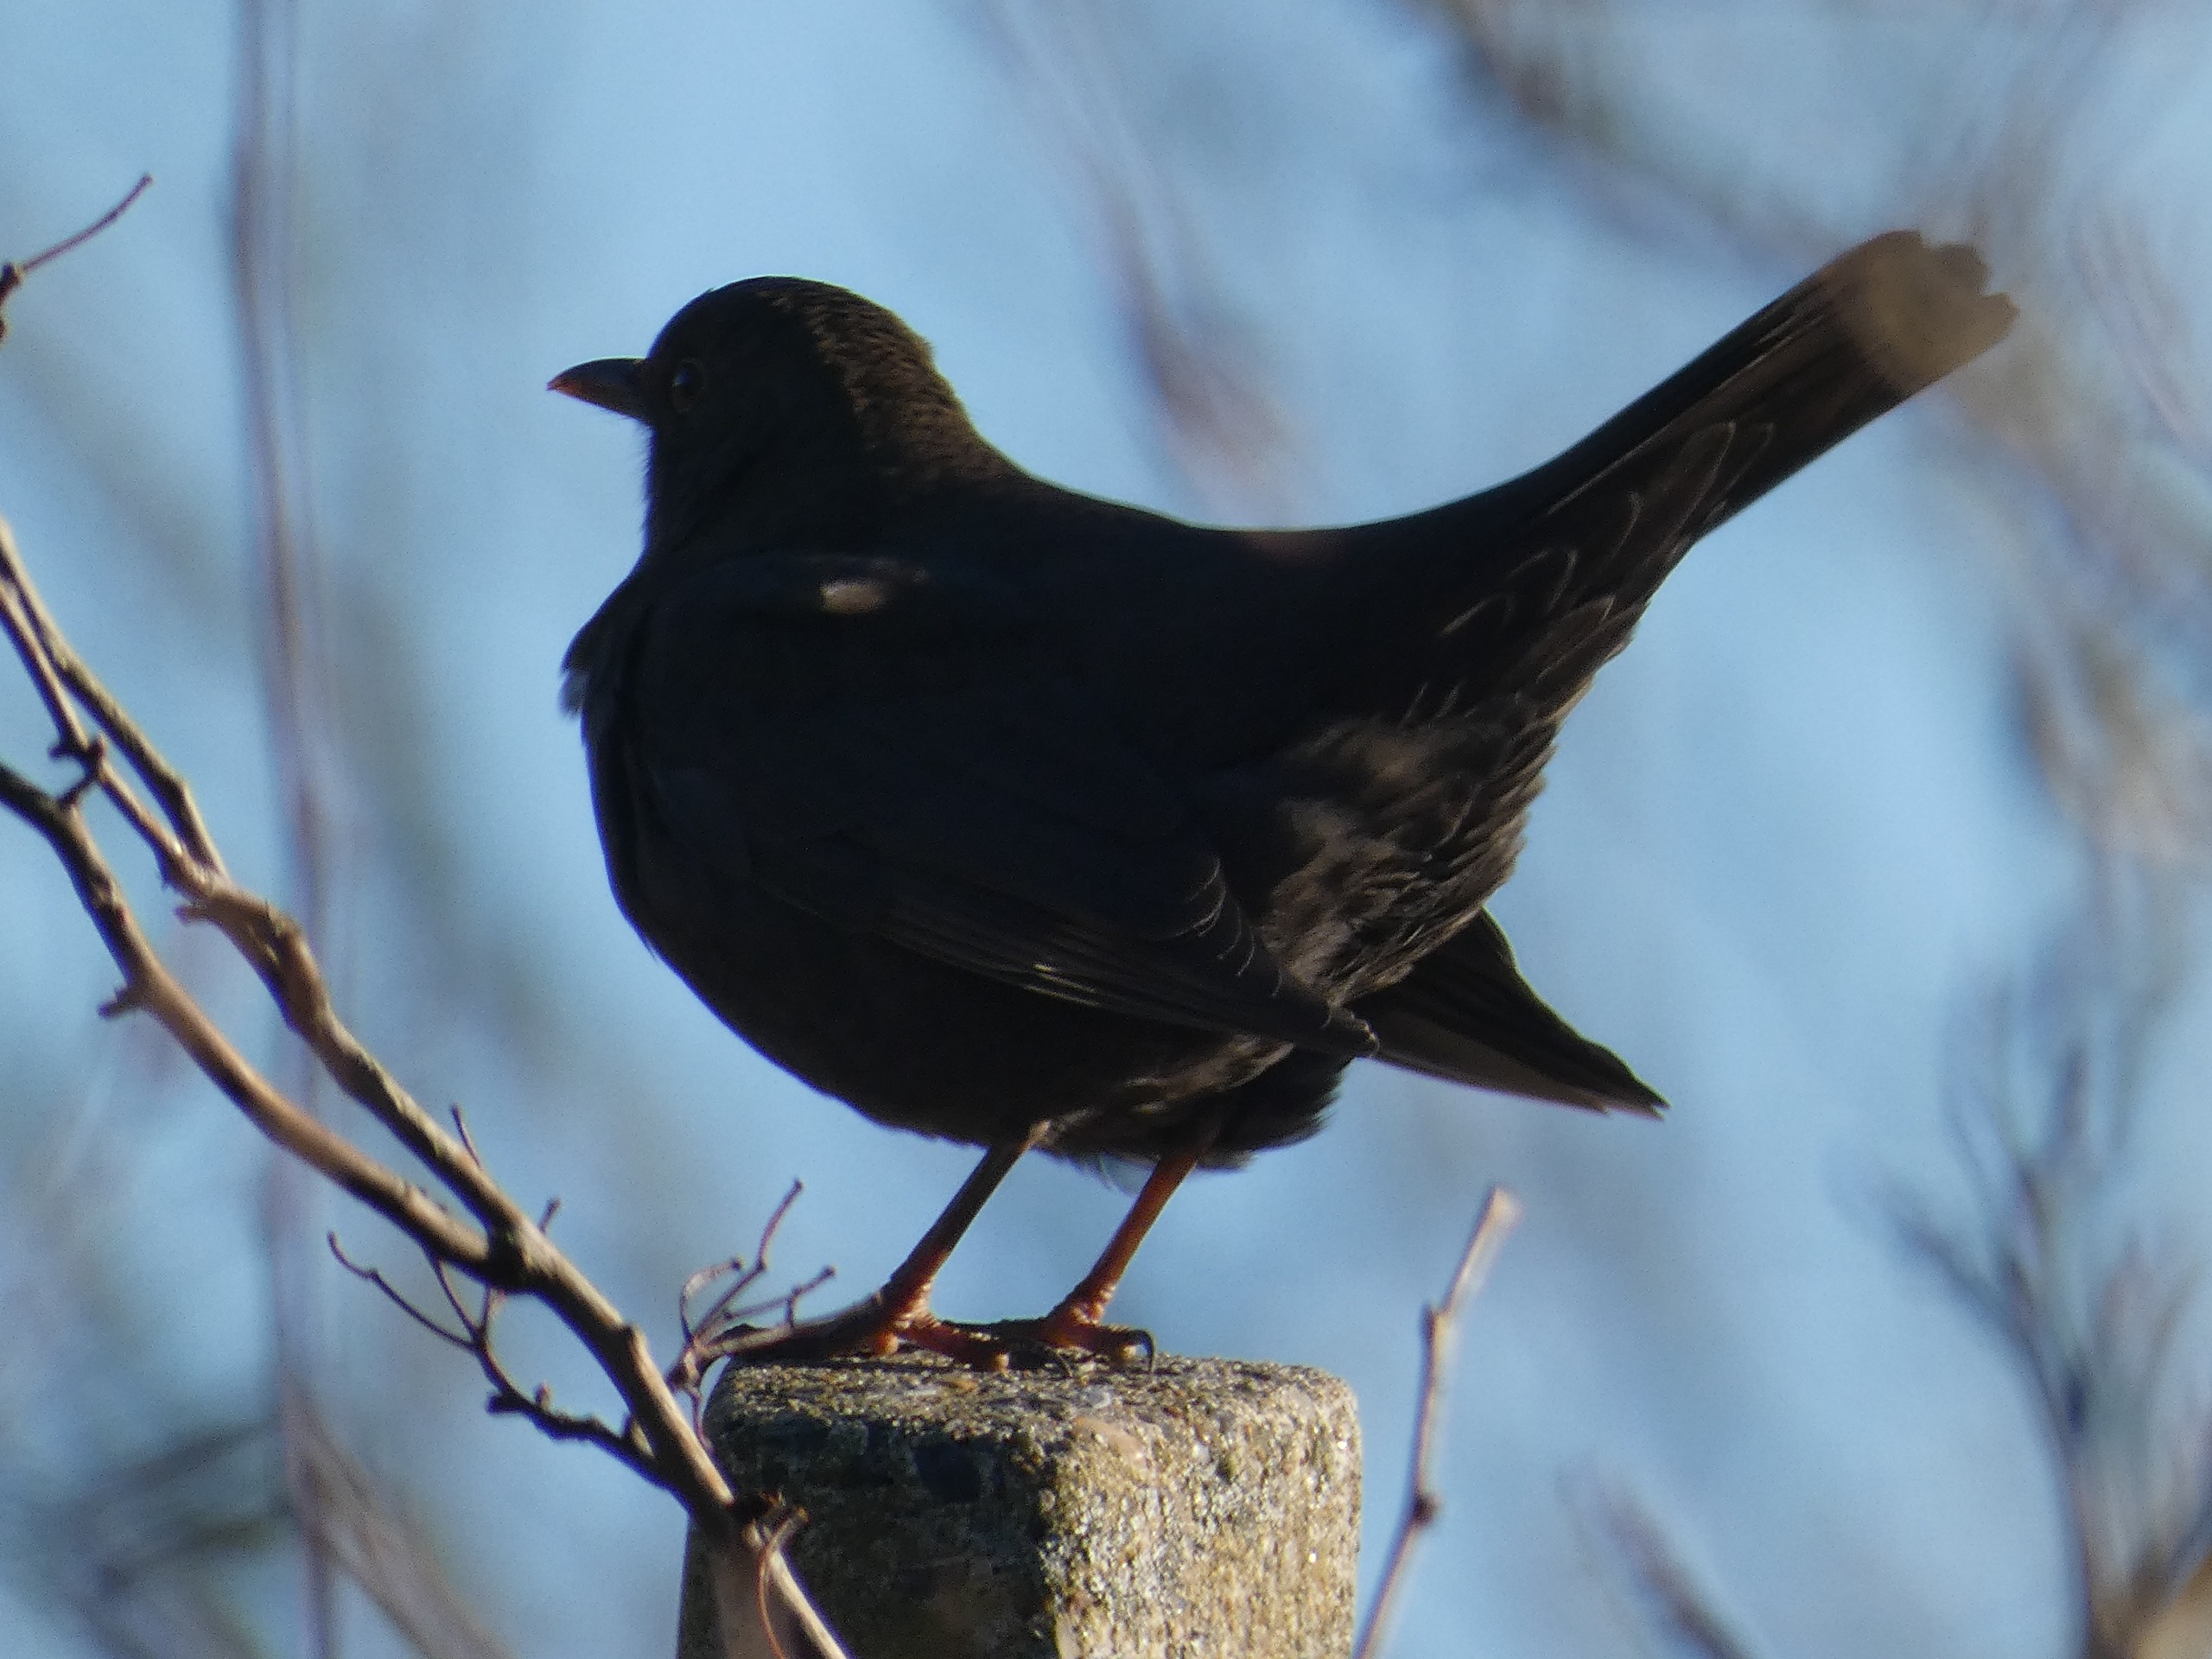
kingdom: Animalia
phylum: Chordata
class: Aves
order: Passeriformes
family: Turdidae
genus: Turdus
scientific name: Turdus merula
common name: Solsort
